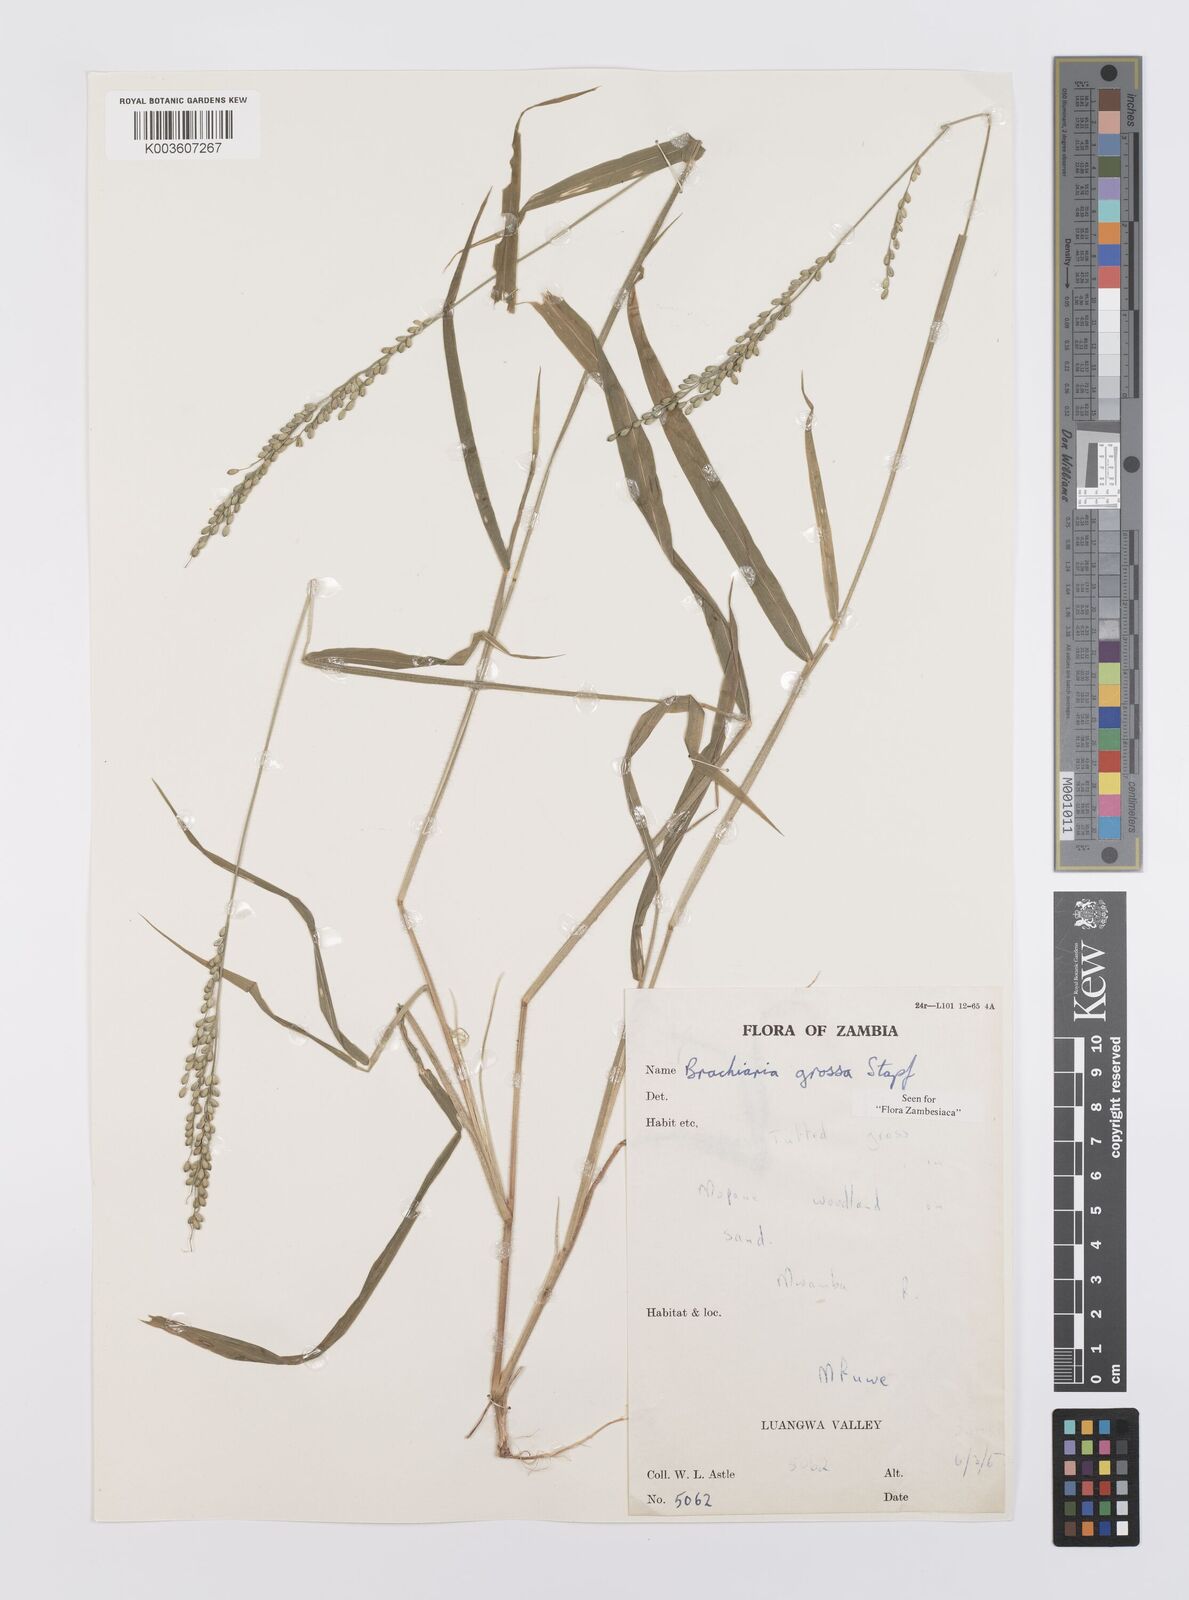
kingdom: Plantae
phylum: Tracheophyta
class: Liliopsida
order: Poales
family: Poaceae
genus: Urochloa
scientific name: Urochloa Brachiaria grossa
